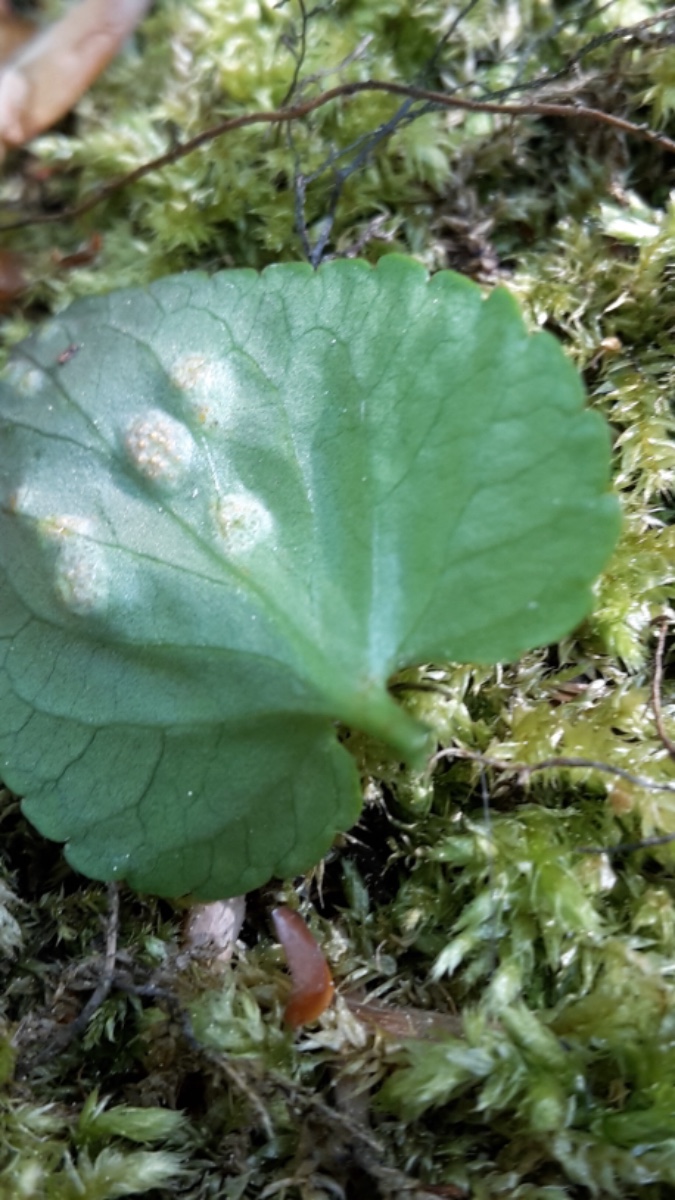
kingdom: Fungi
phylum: Basidiomycota
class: Pucciniomycetes
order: Pucciniales
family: Pucciniaceae
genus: Puccinia
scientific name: Puccinia violae
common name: viol-tvecellerust
